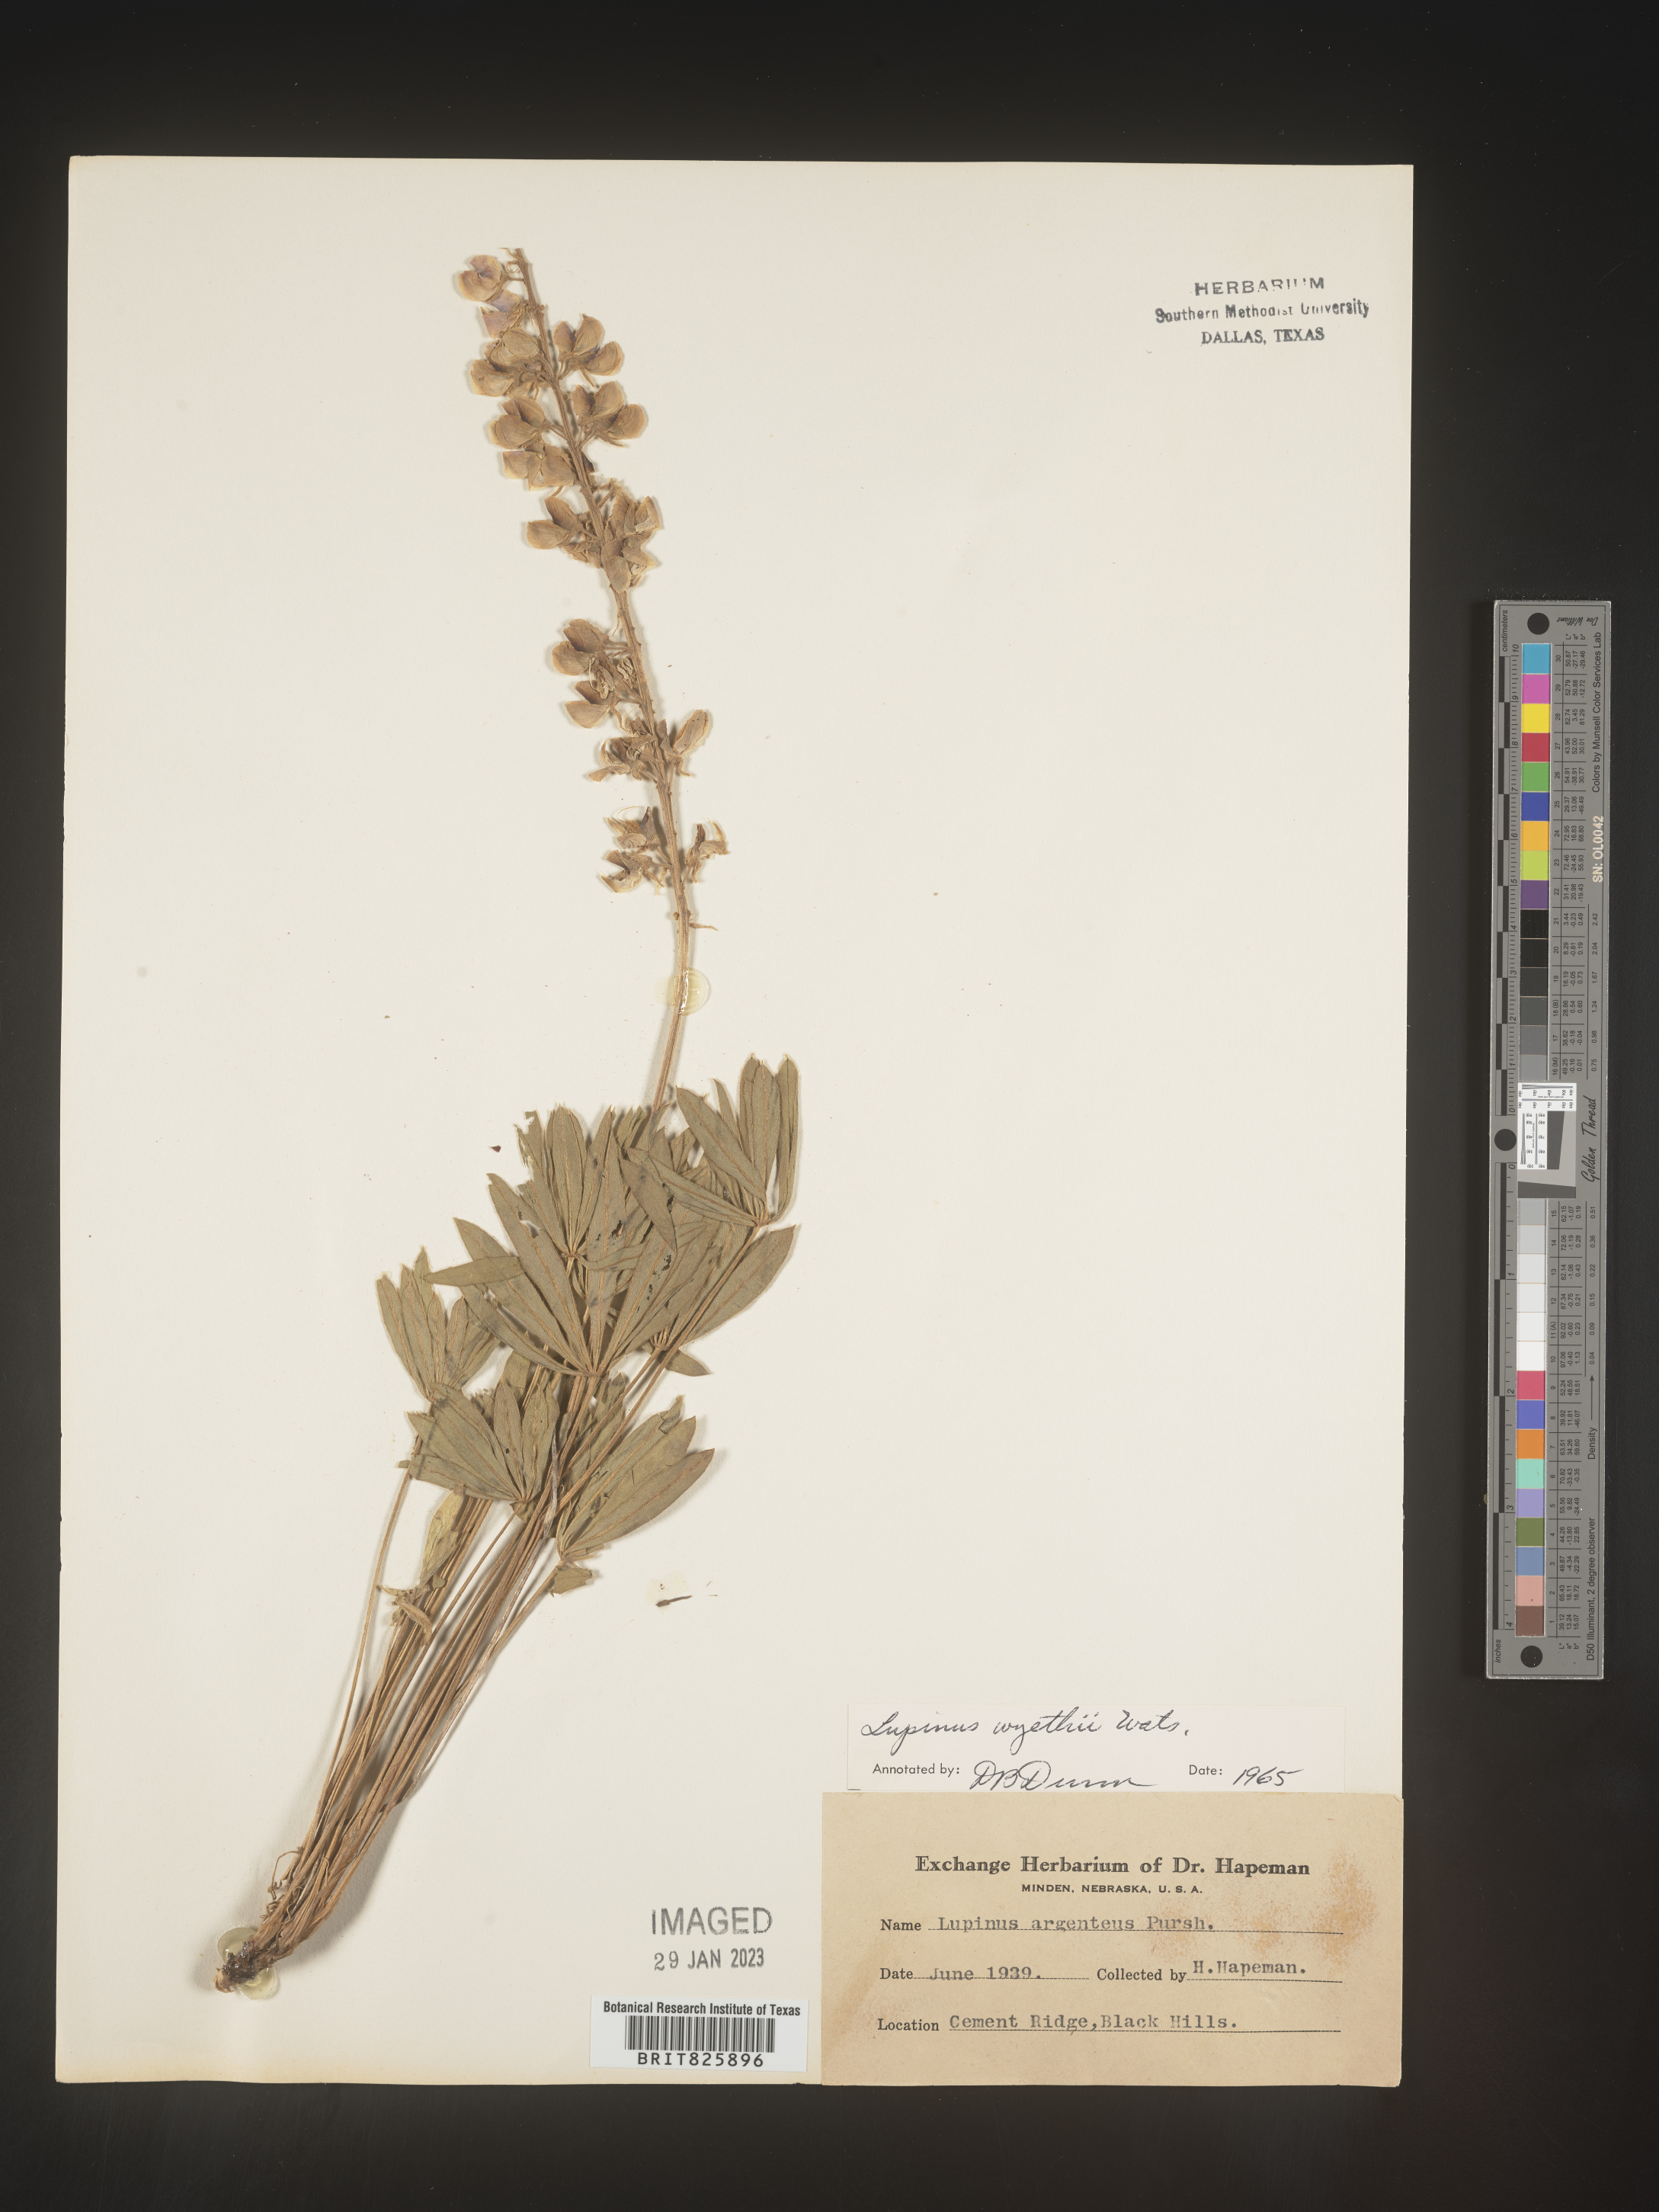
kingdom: Plantae
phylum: Tracheophyta
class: Magnoliopsida
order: Fabales
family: Fabaceae
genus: Lupinus
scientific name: Lupinus
